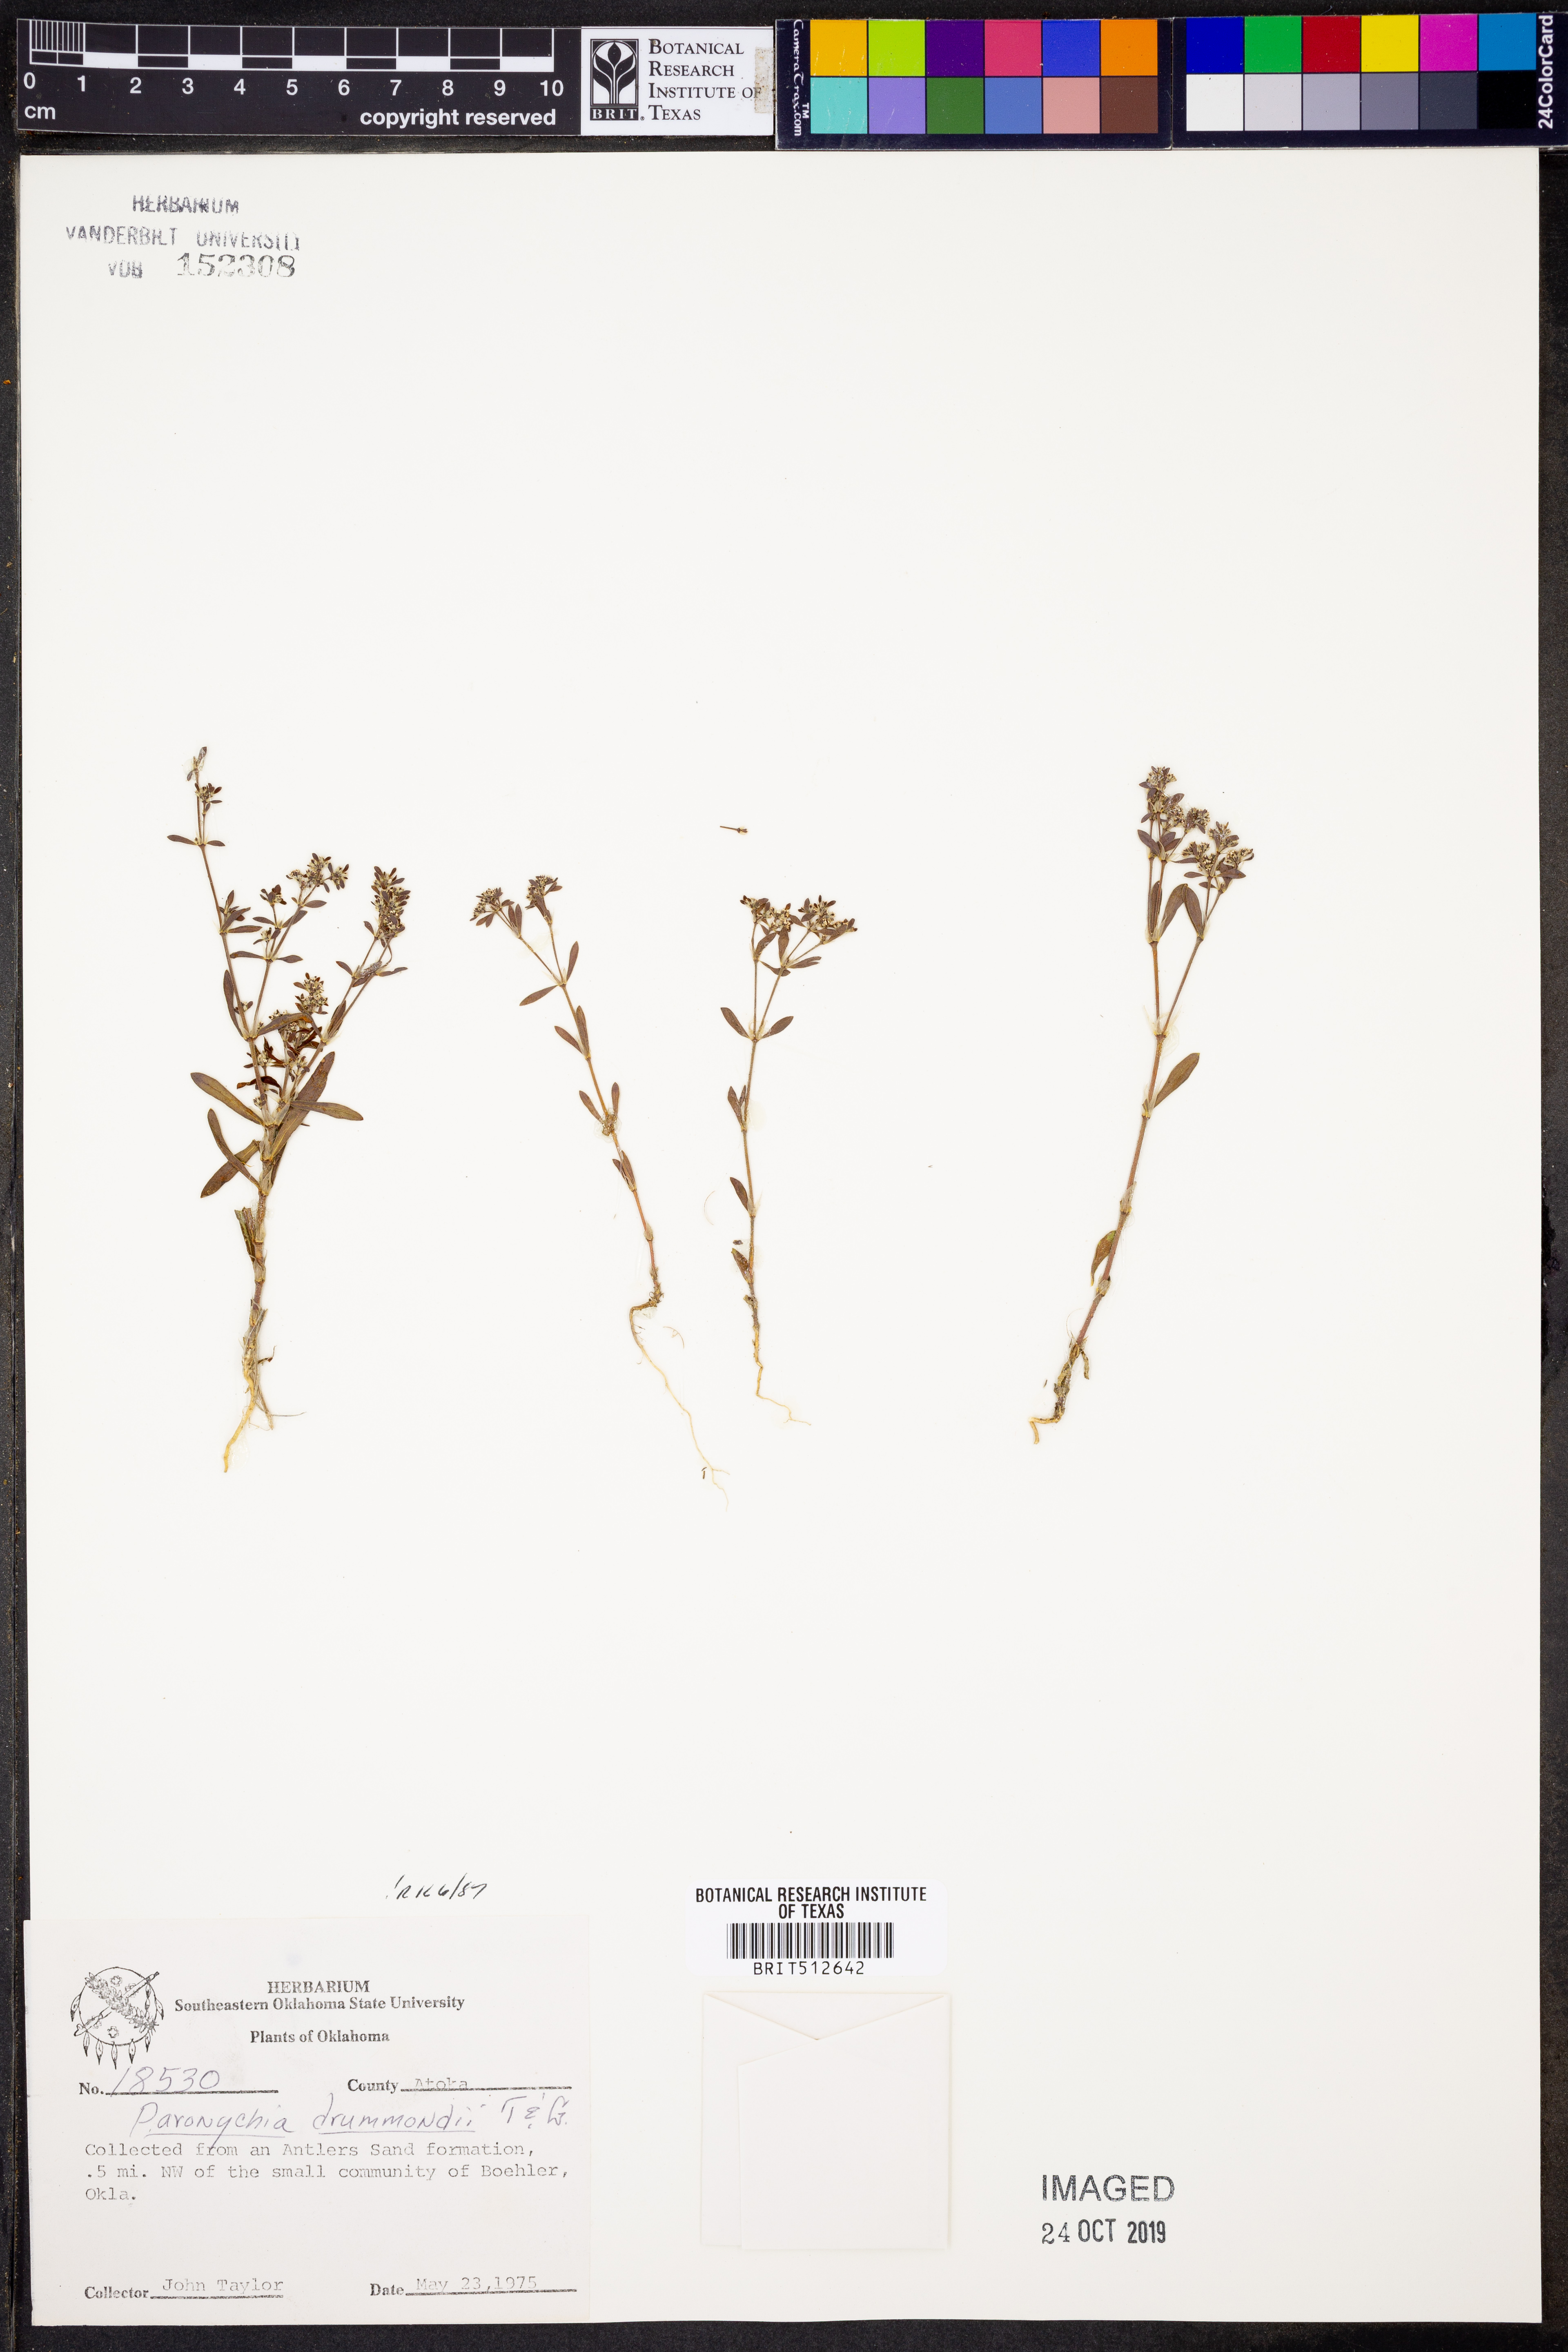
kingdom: Plantae
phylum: Tracheophyta
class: Magnoliopsida
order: Caryophyllales
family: Caryophyllaceae
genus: Paronychia
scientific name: Paronychia drummondii
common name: Drummond's nailwort
